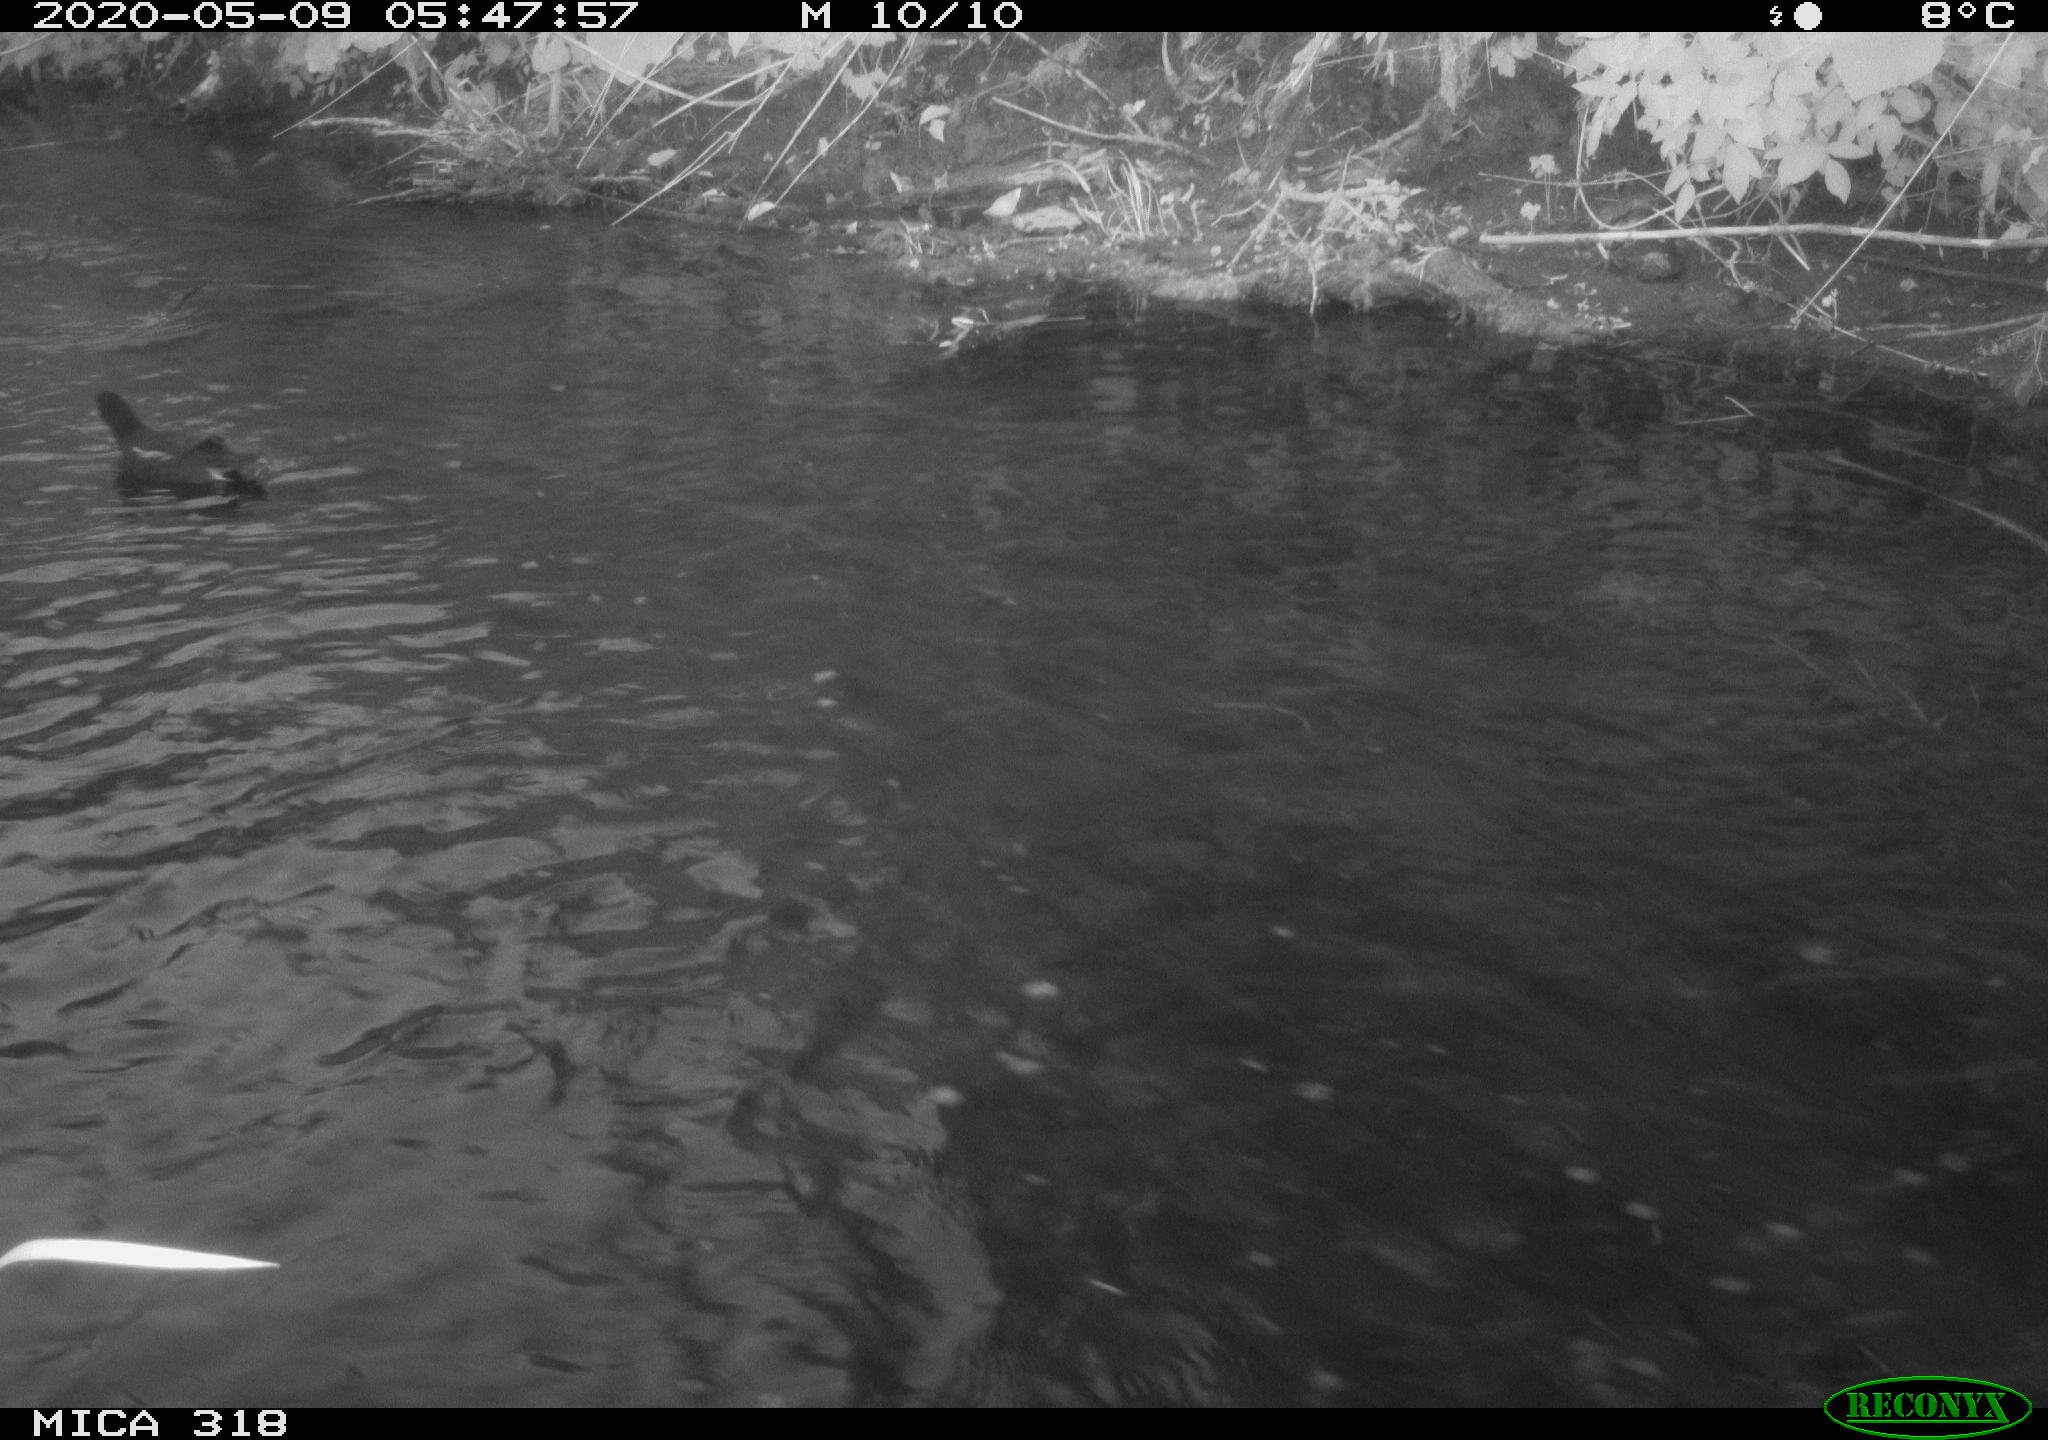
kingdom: Animalia
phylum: Chordata
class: Aves
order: Gruiformes
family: Rallidae
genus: Gallinula
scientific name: Gallinula chloropus
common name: Common moorhen
